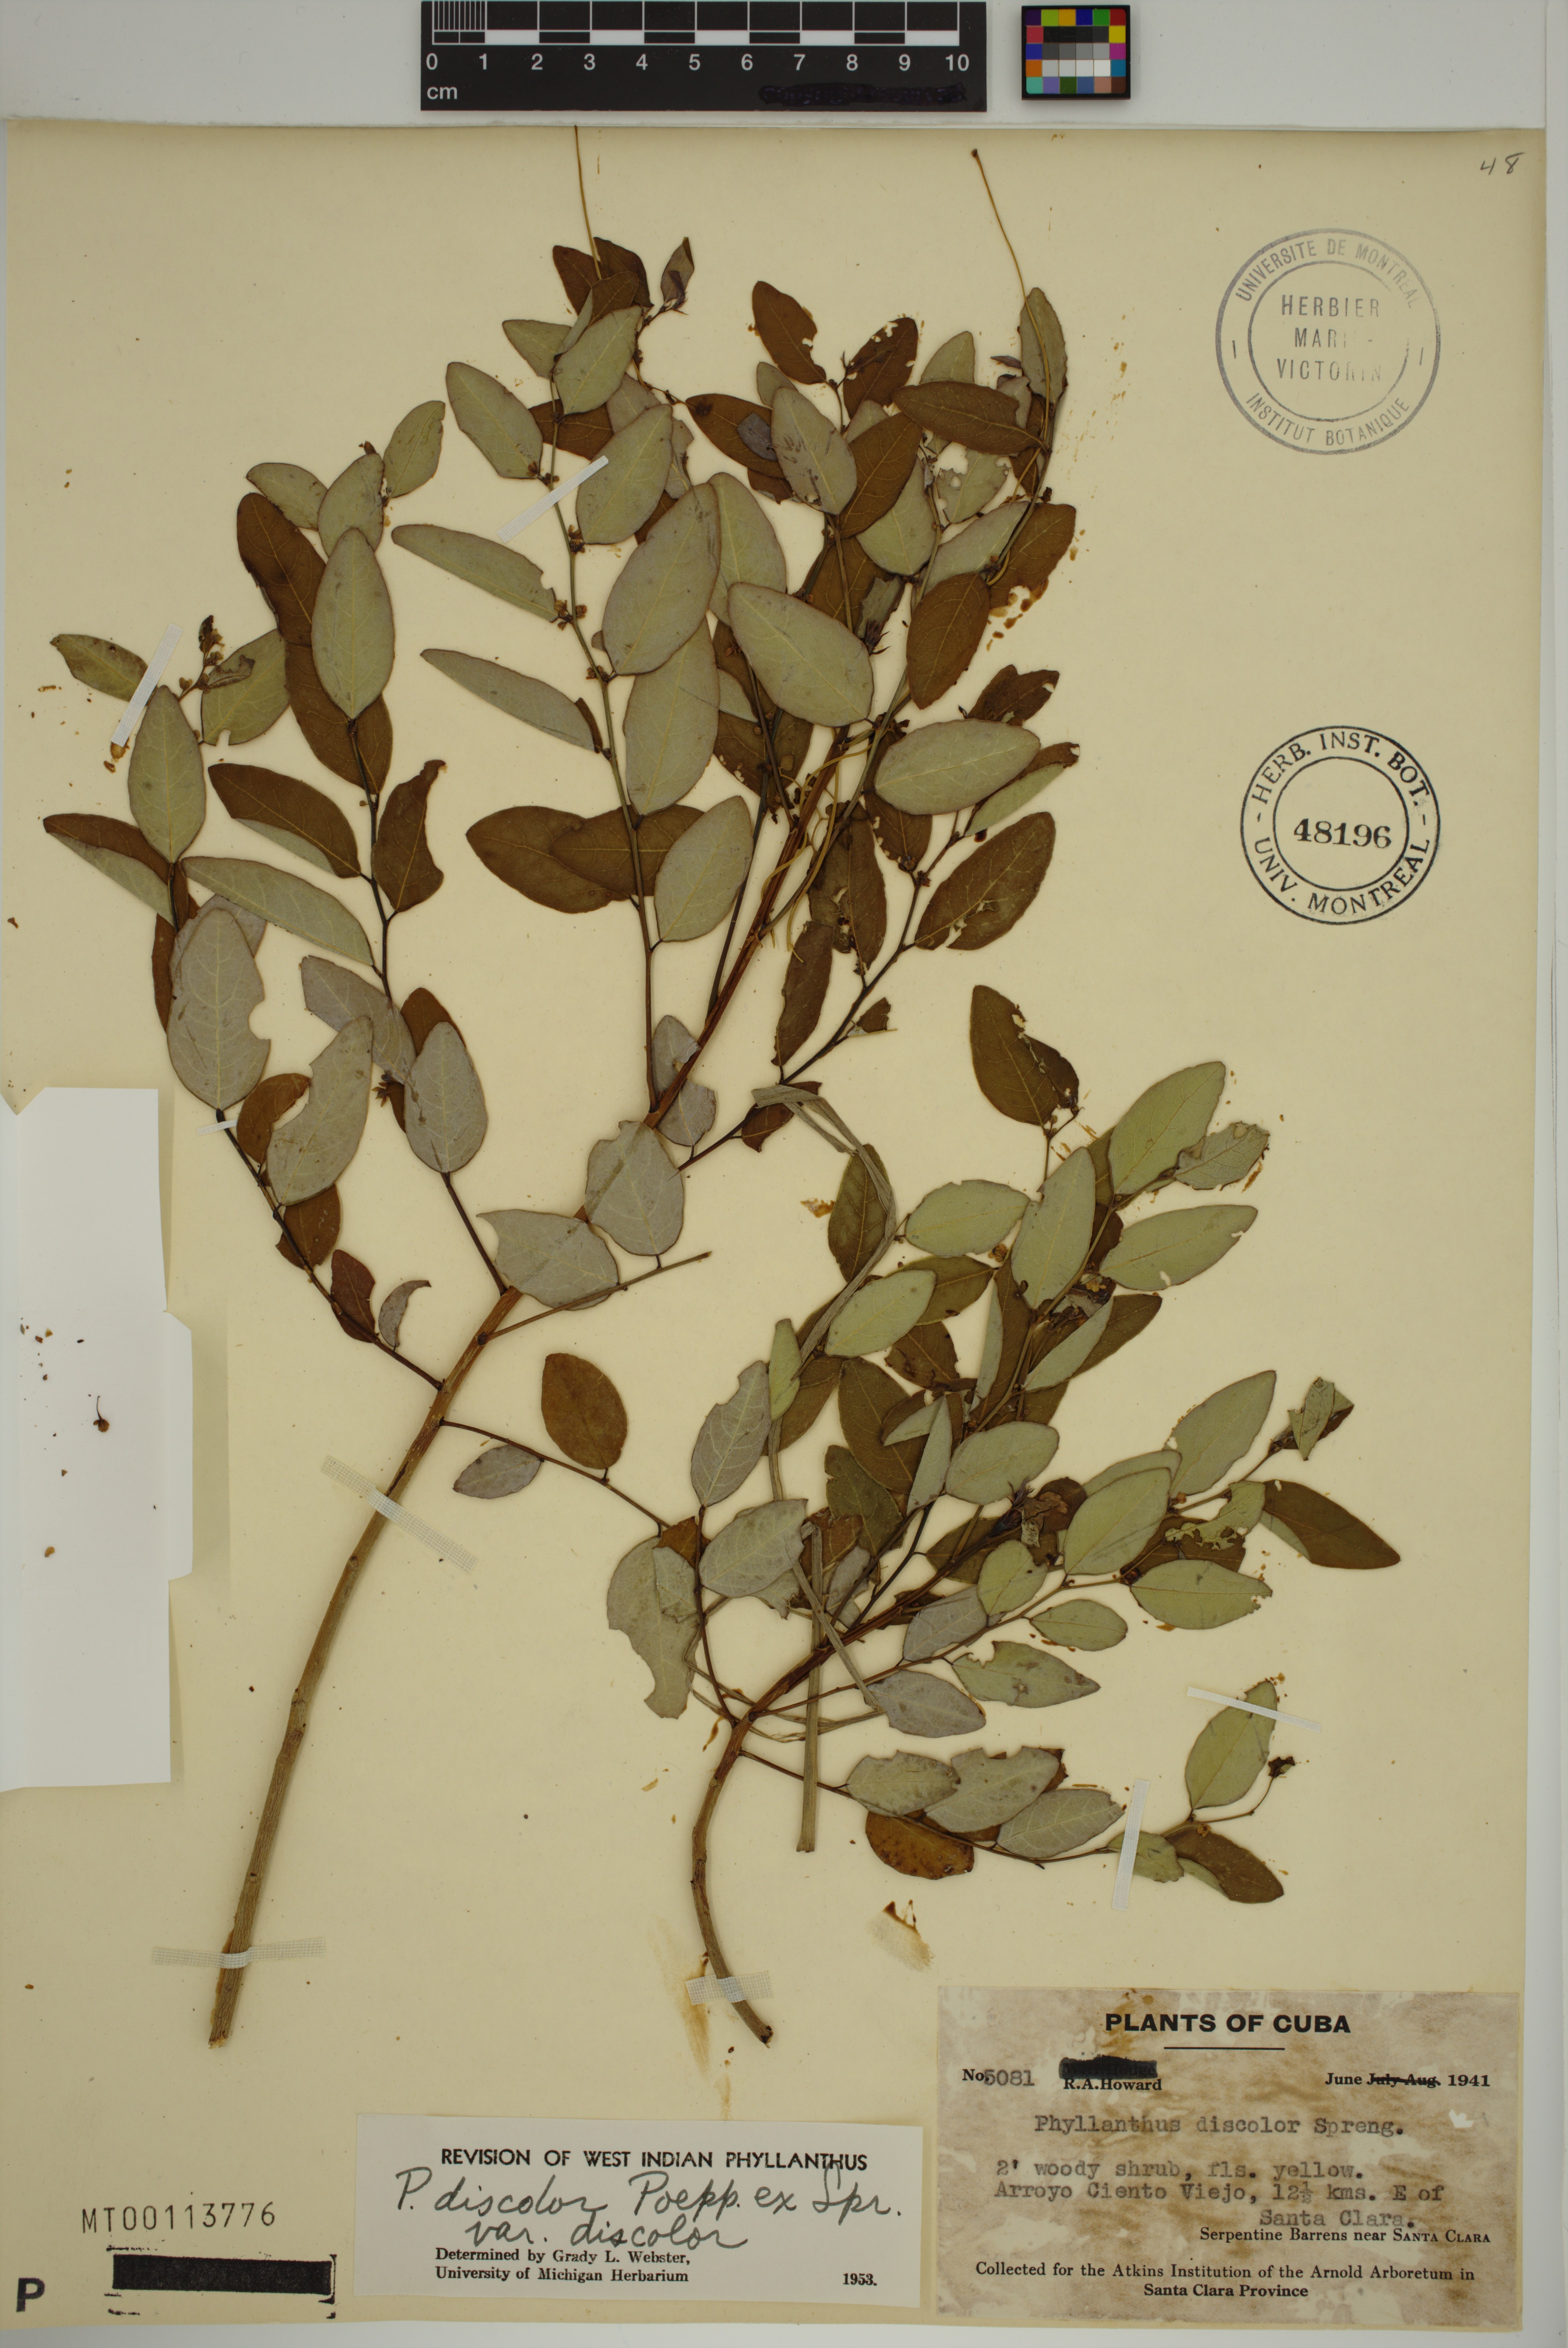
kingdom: Plantae
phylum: Tracheophyta
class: Magnoliopsida
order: Malpighiales
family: Phyllanthaceae
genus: Phyllanthus
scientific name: Phyllanthus discolor
